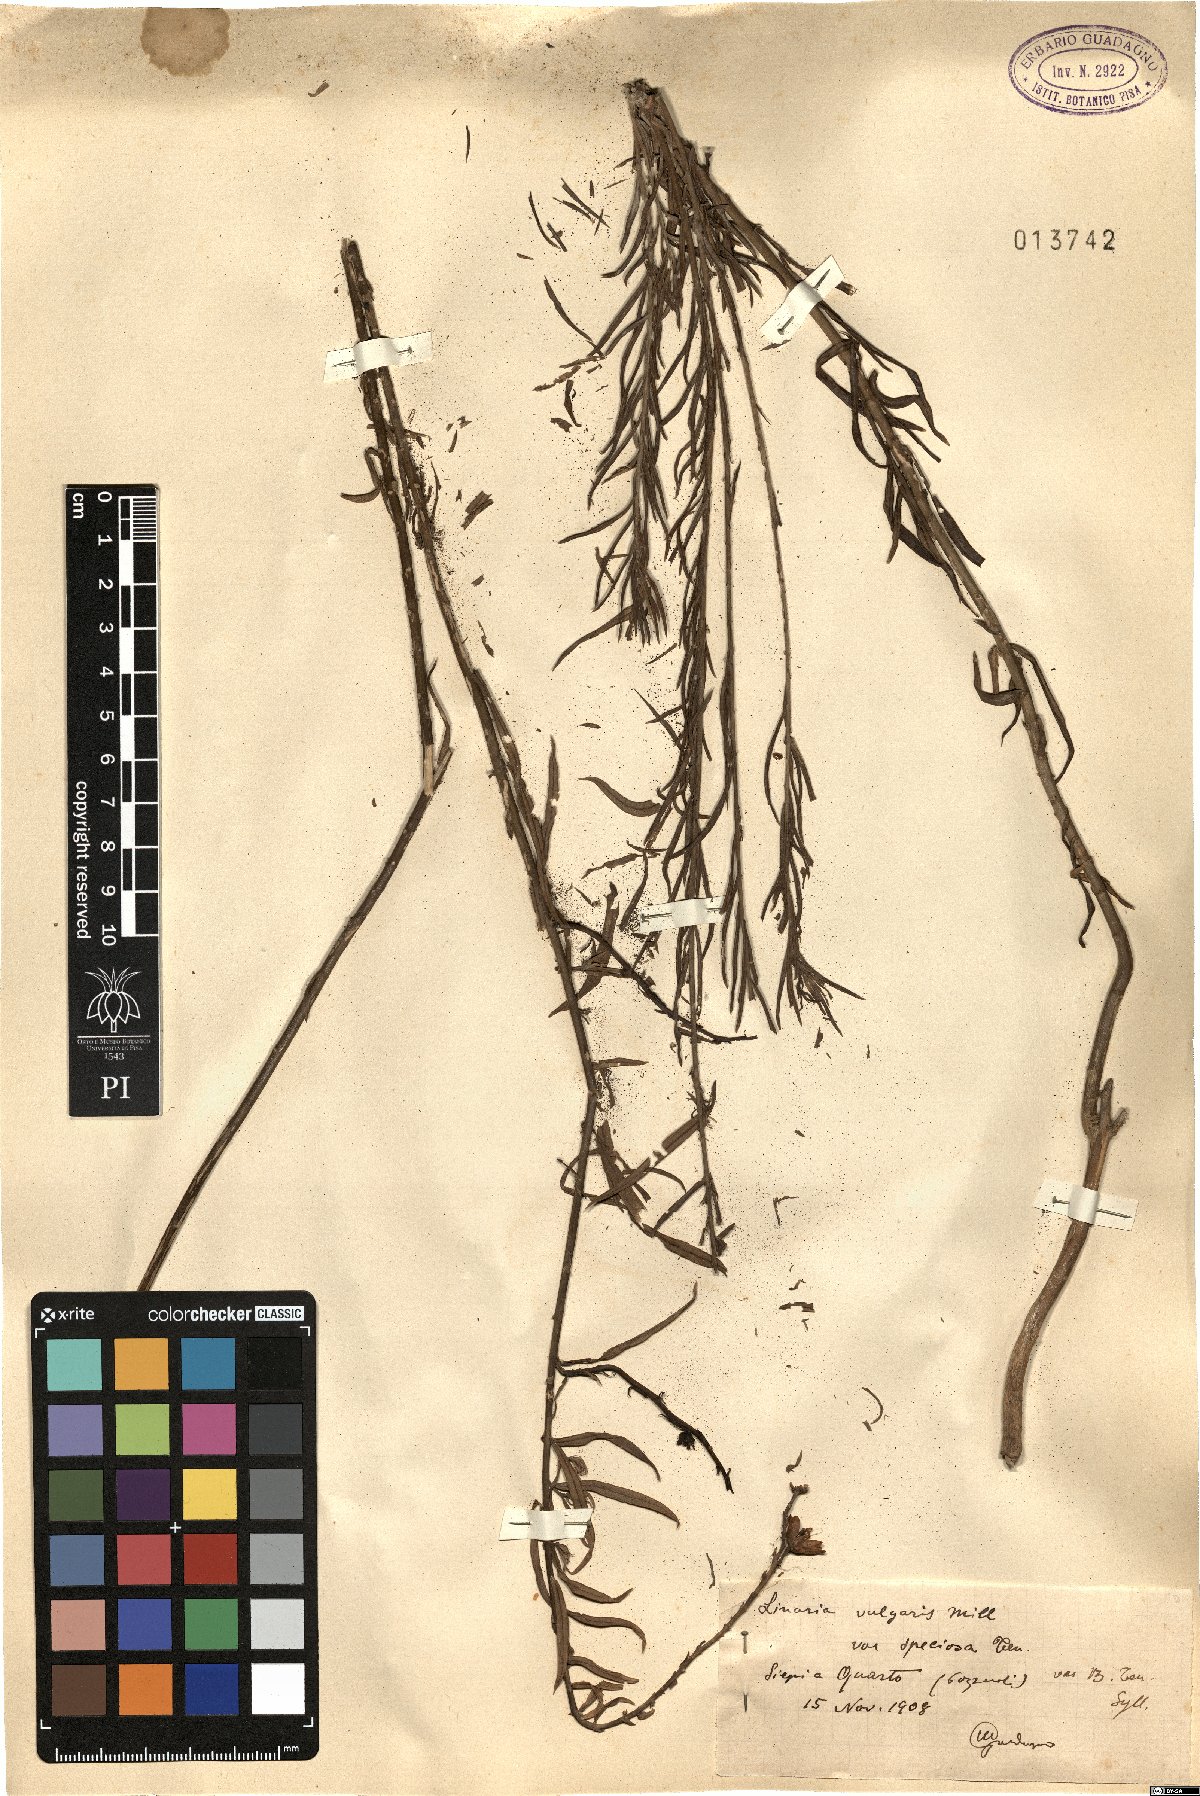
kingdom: Plantae
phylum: Tracheophyta
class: Magnoliopsida
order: Lamiales
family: Plantaginaceae
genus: Linaria
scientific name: Linaria vulgaris
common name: Butter and eggs
